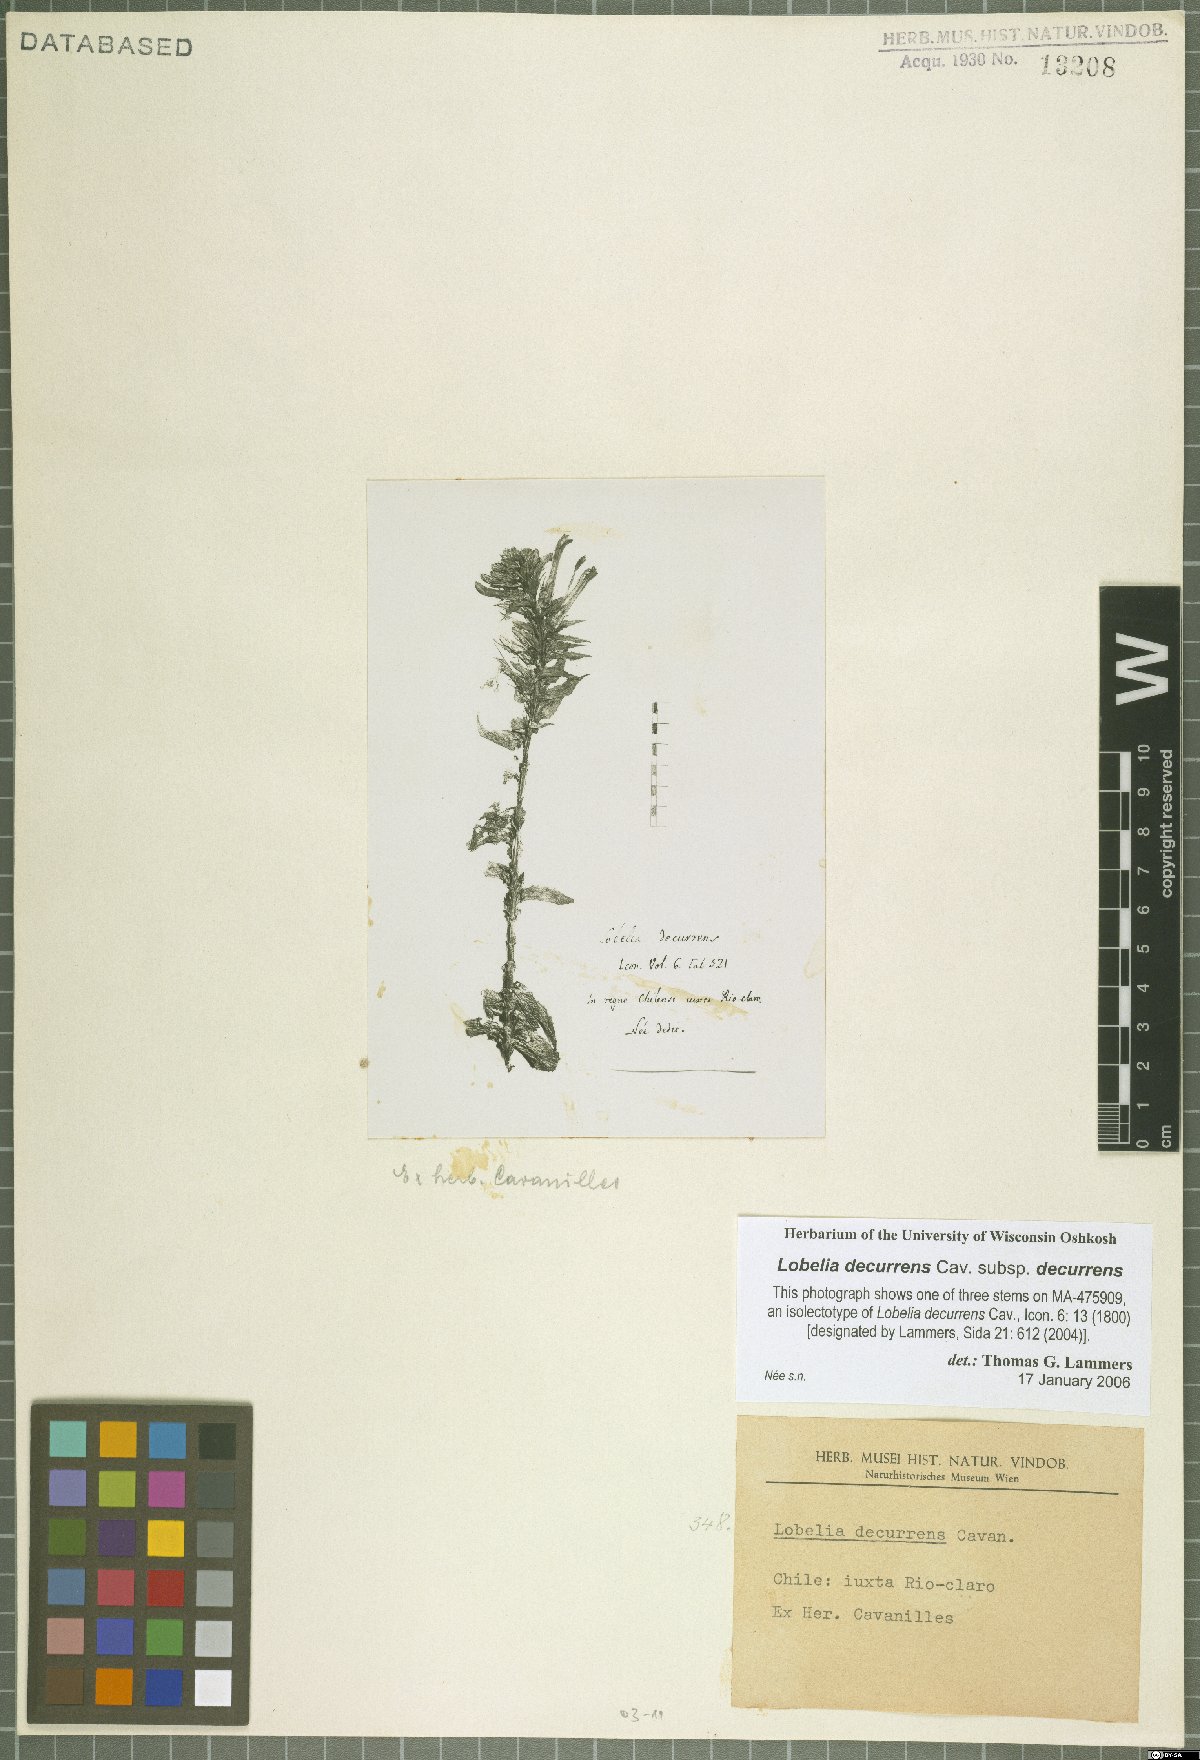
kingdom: Plantae
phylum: Tracheophyta
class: Magnoliopsida
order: Asterales
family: Campanulaceae
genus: Lobelia
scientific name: Lobelia decurrens
